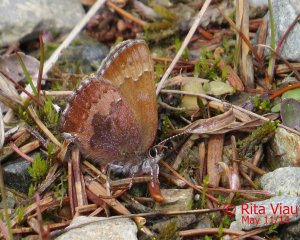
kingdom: Animalia
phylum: Arthropoda
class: Insecta
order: Lepidoptera
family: Lycaenidae
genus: Incisalia
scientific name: Incisalia irioides
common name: Brown Elfin
